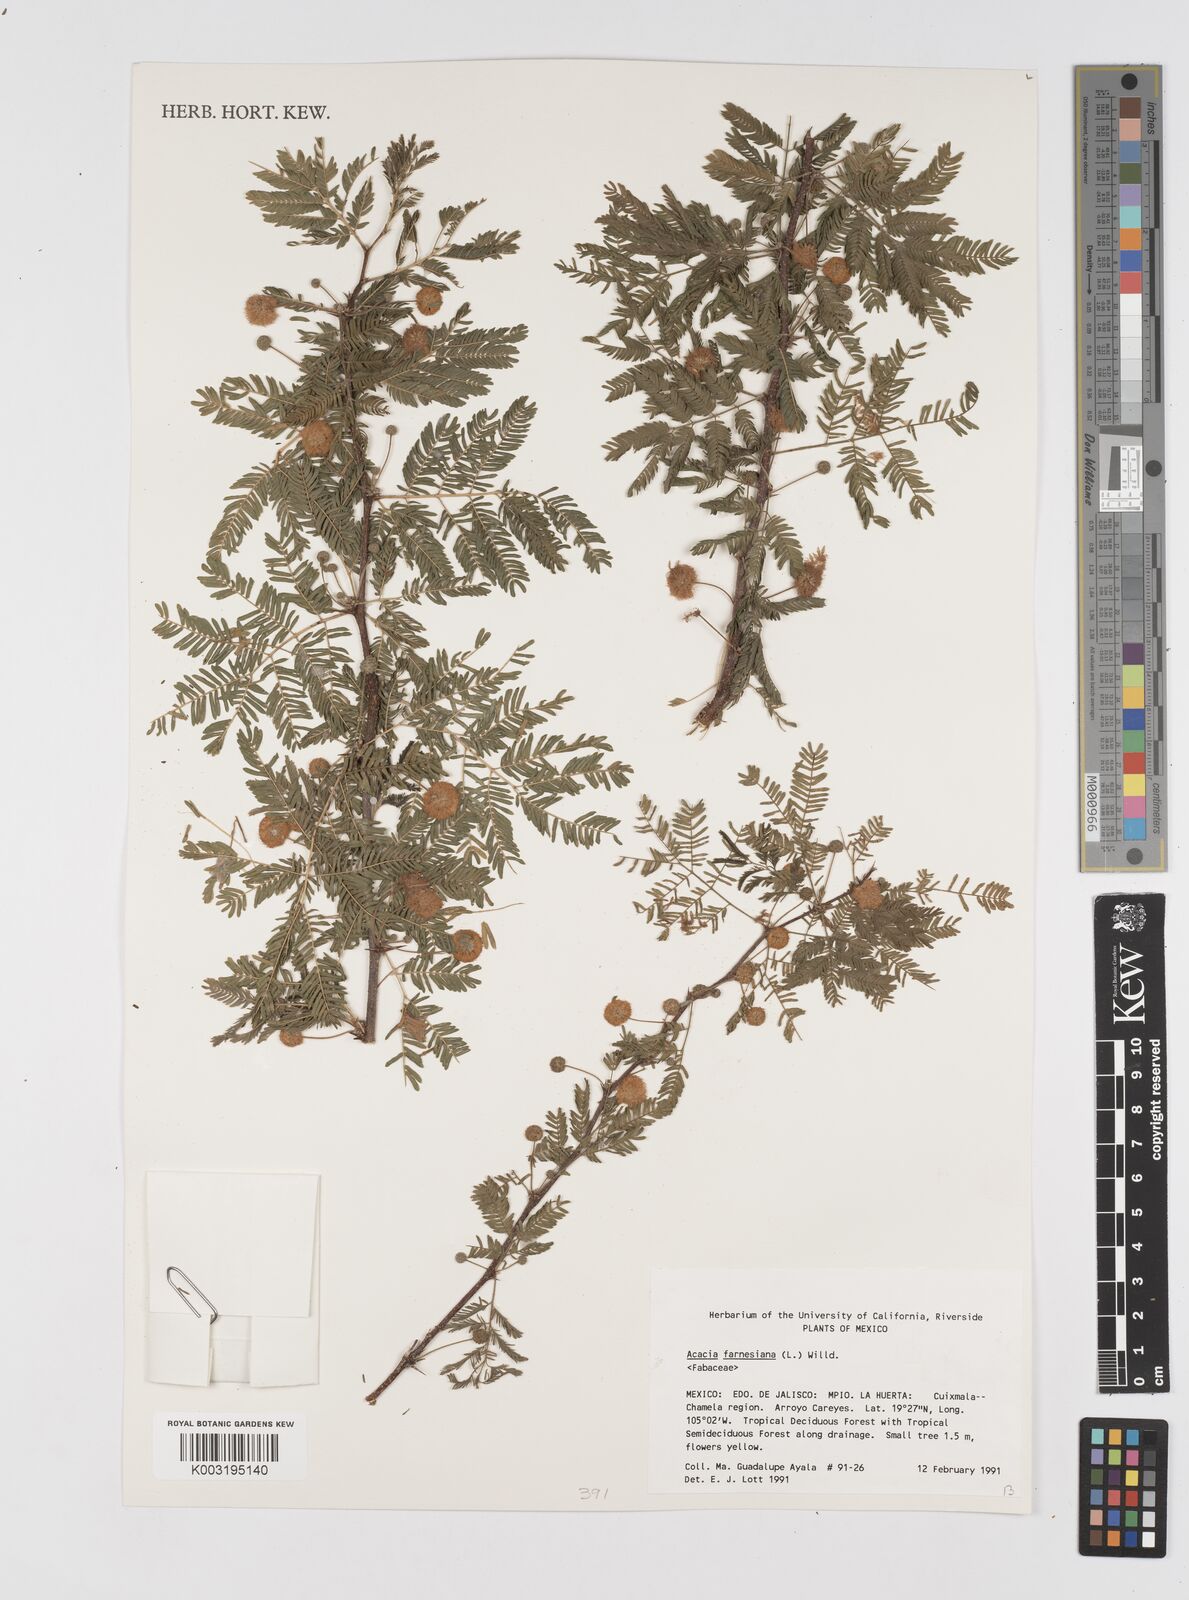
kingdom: Plantae
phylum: Tracheophyta
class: Magnoliopsida
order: Fabales
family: Fabaceae
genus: Vachellia
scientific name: Vachellia farnesiana
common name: Sweet acacia
